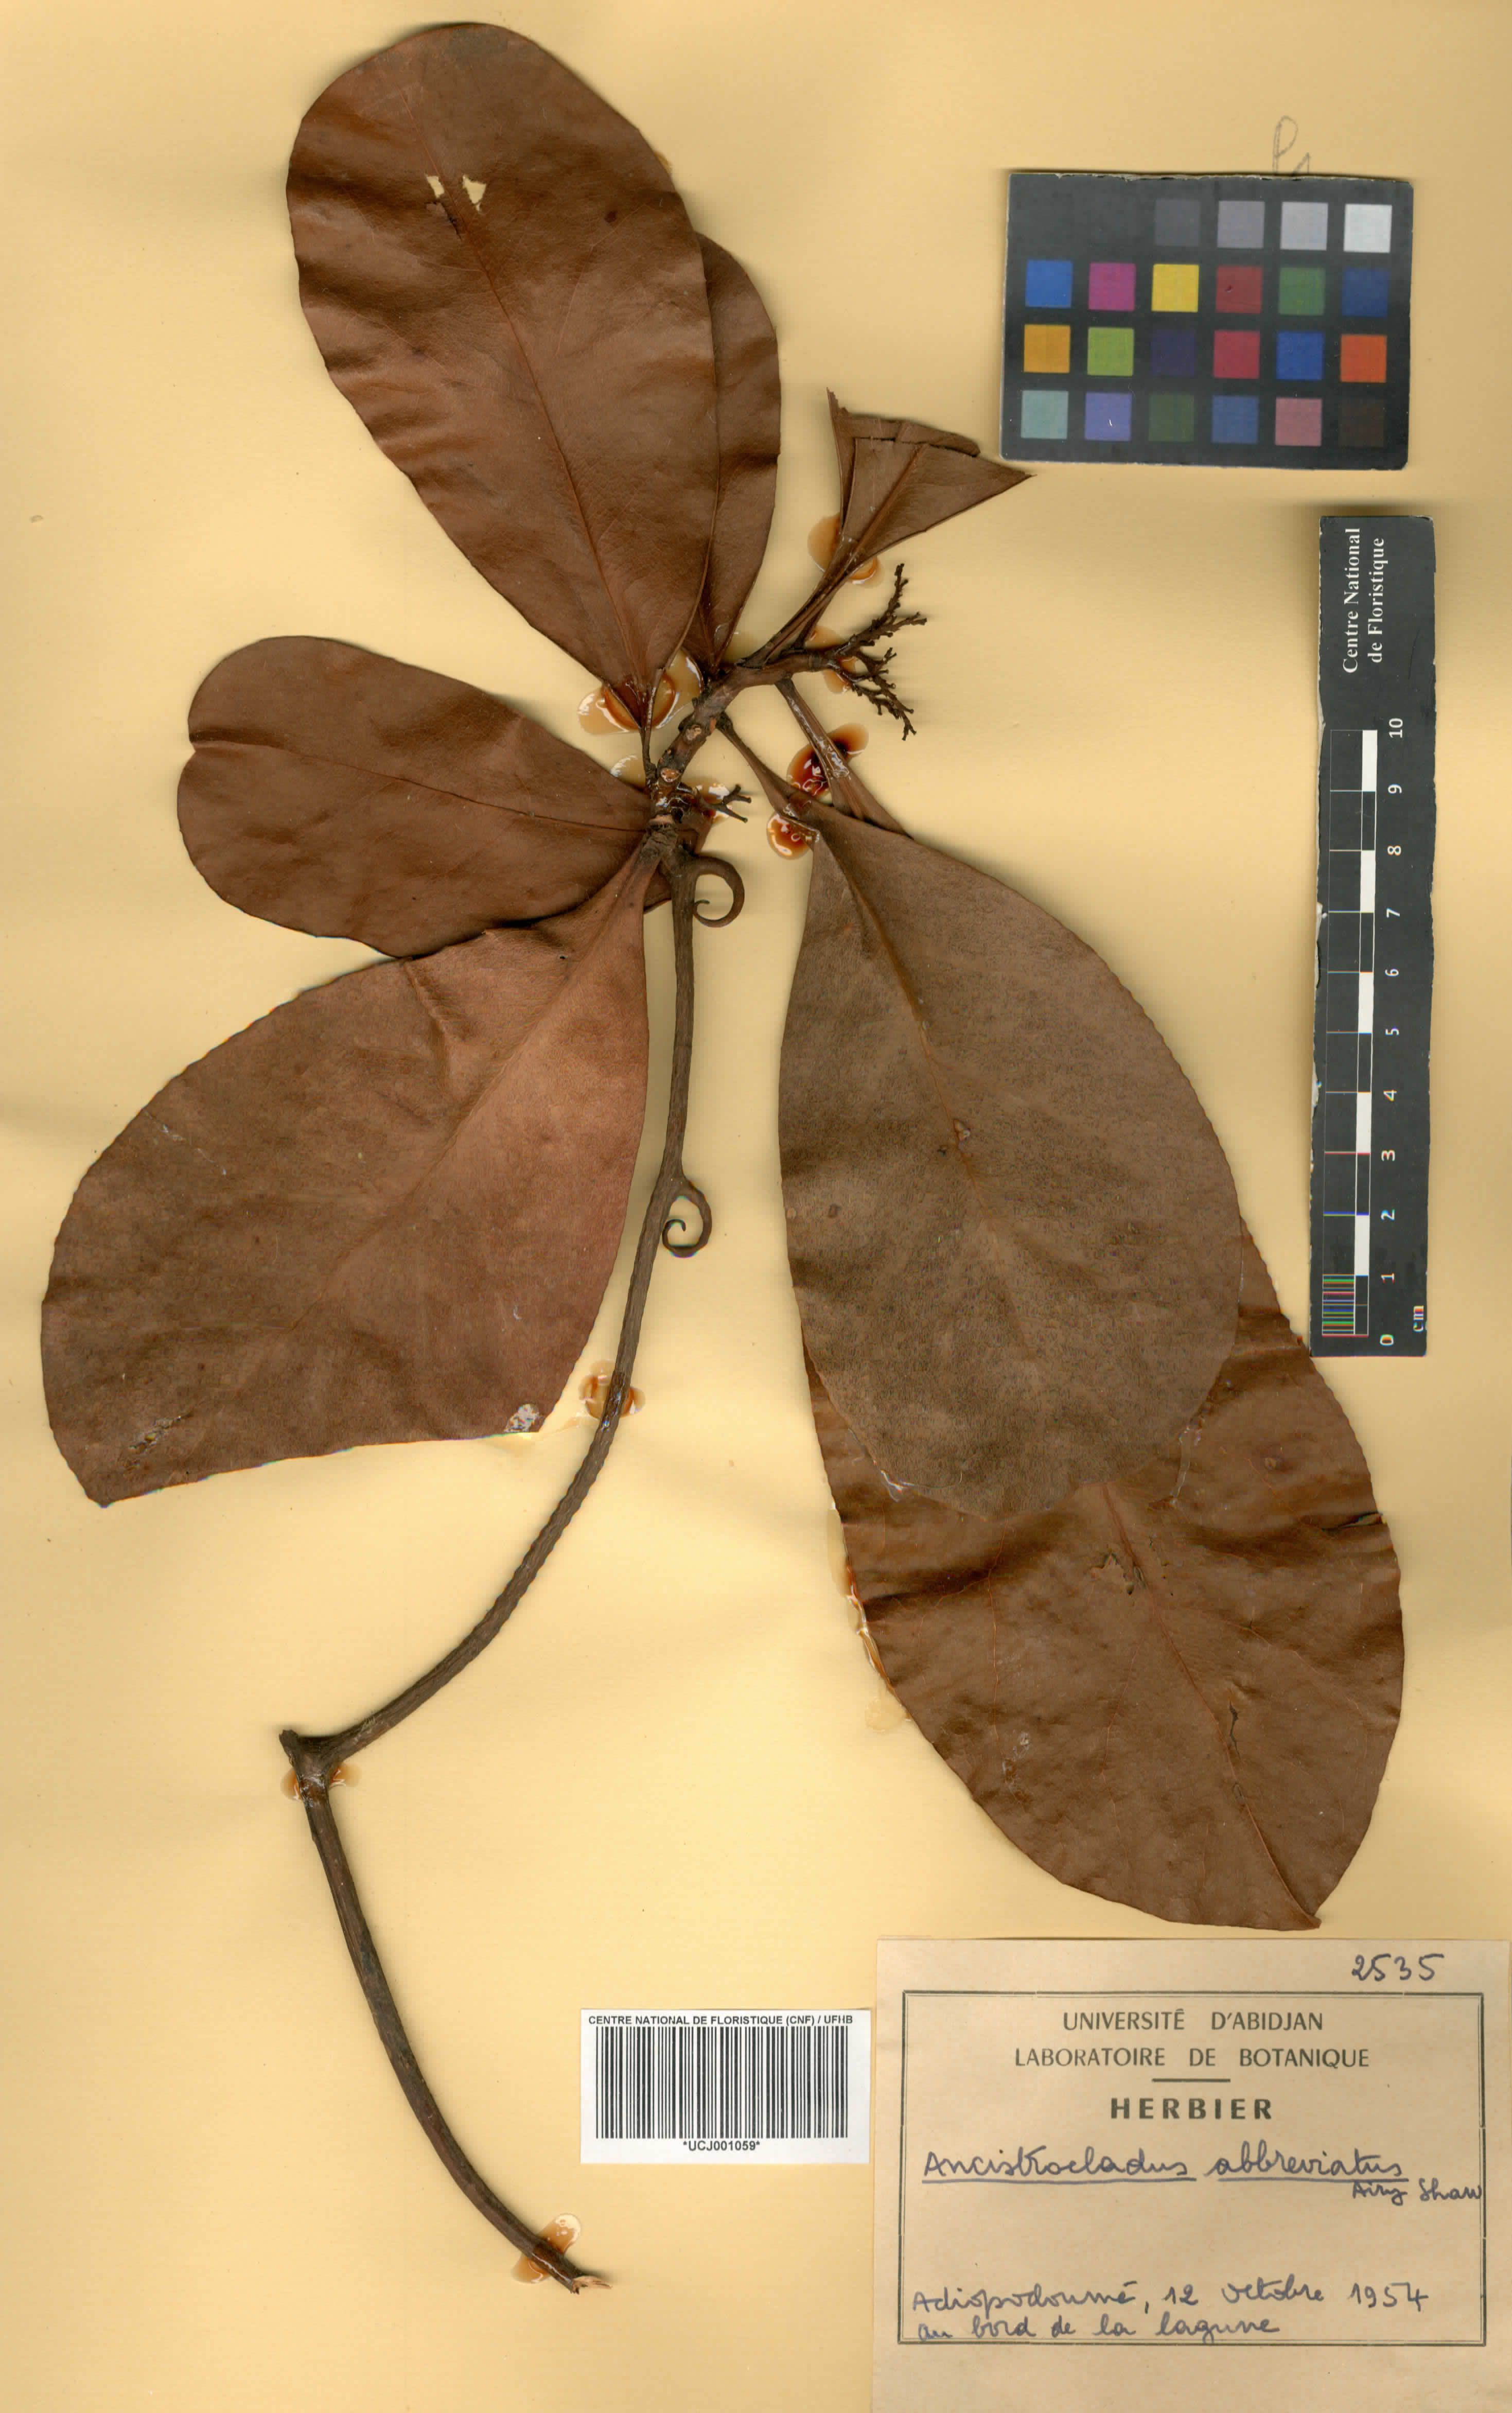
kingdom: Plantae
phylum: Tracheophyta
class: Magnoliopsida
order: Caryophyllales
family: Ancistrocladaceae
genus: Ancistrocladus
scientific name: Ancistrocladus abbreviatus
